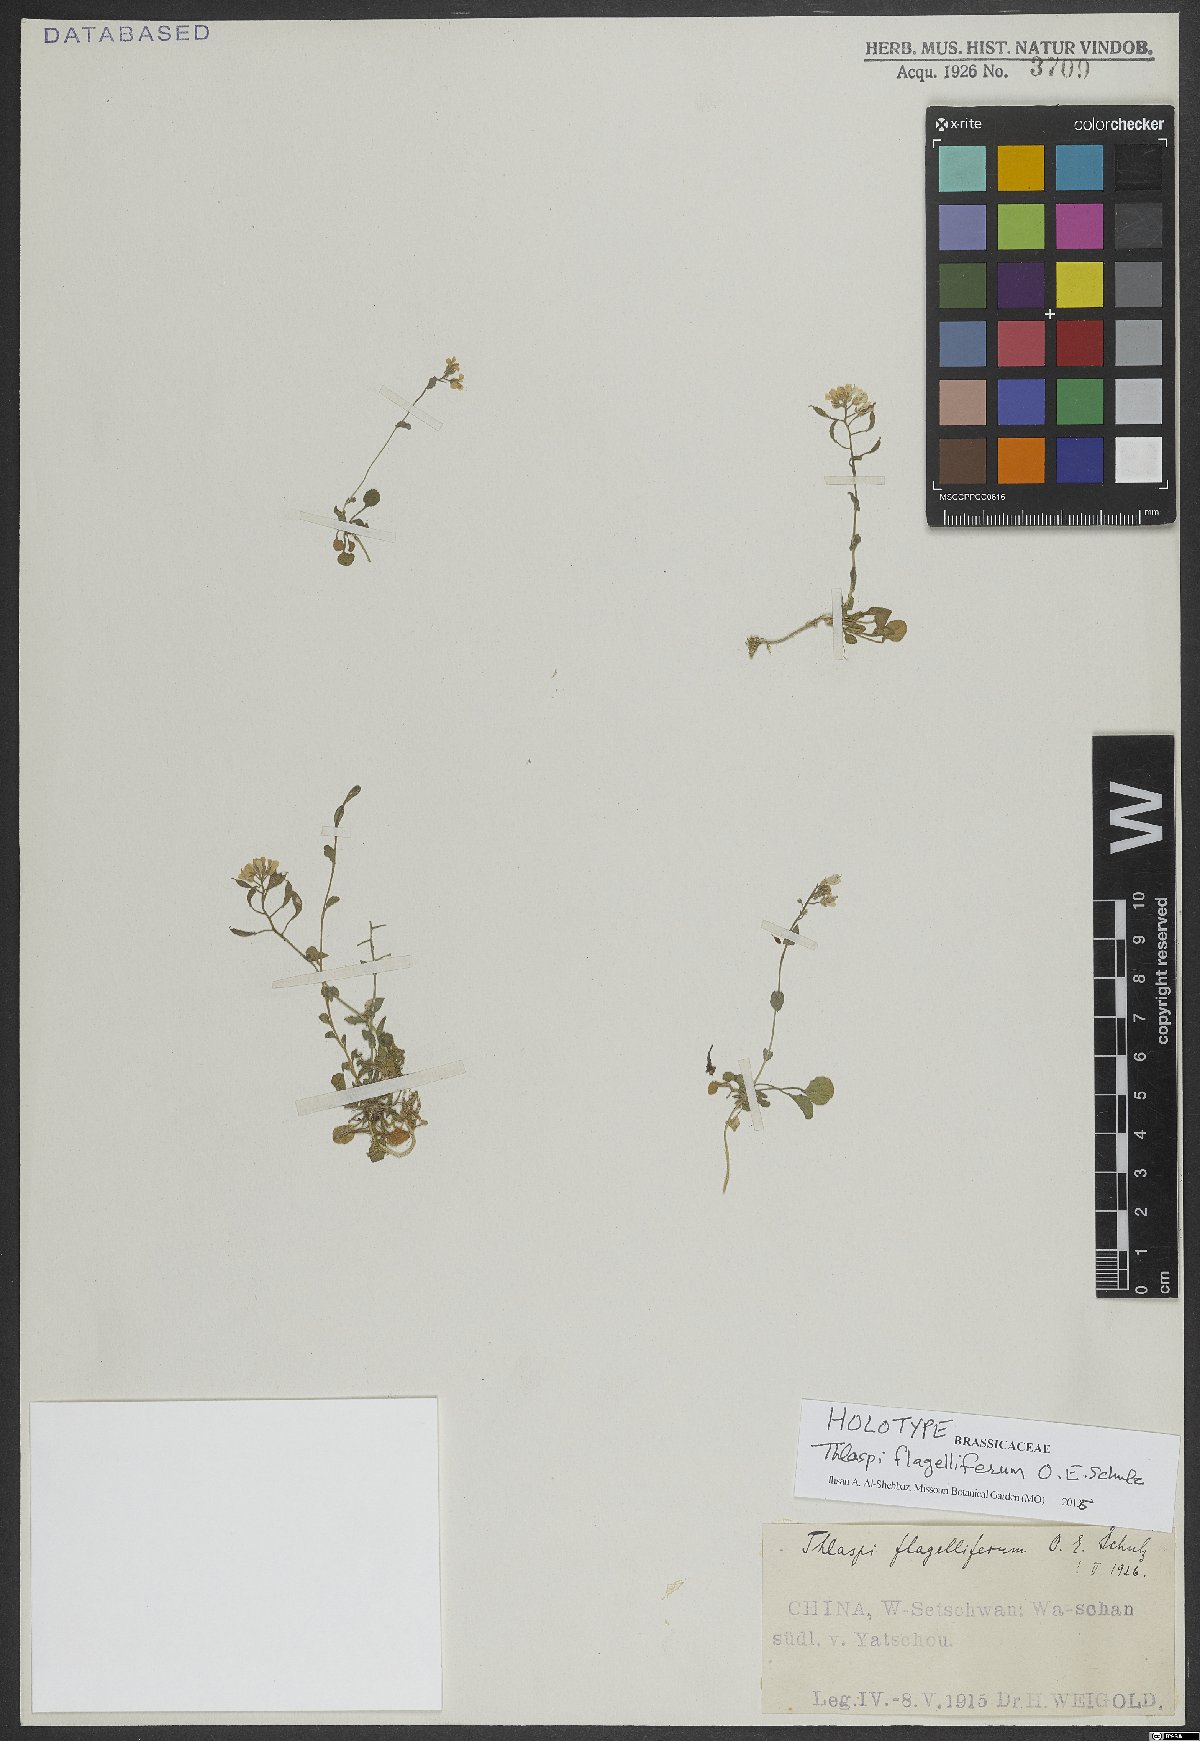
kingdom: Plantae
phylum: Tracheophyta
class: Magnoliopsida
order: Brassicales
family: Brassicaceae
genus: Noccaea
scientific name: Noccaea flagellifera
